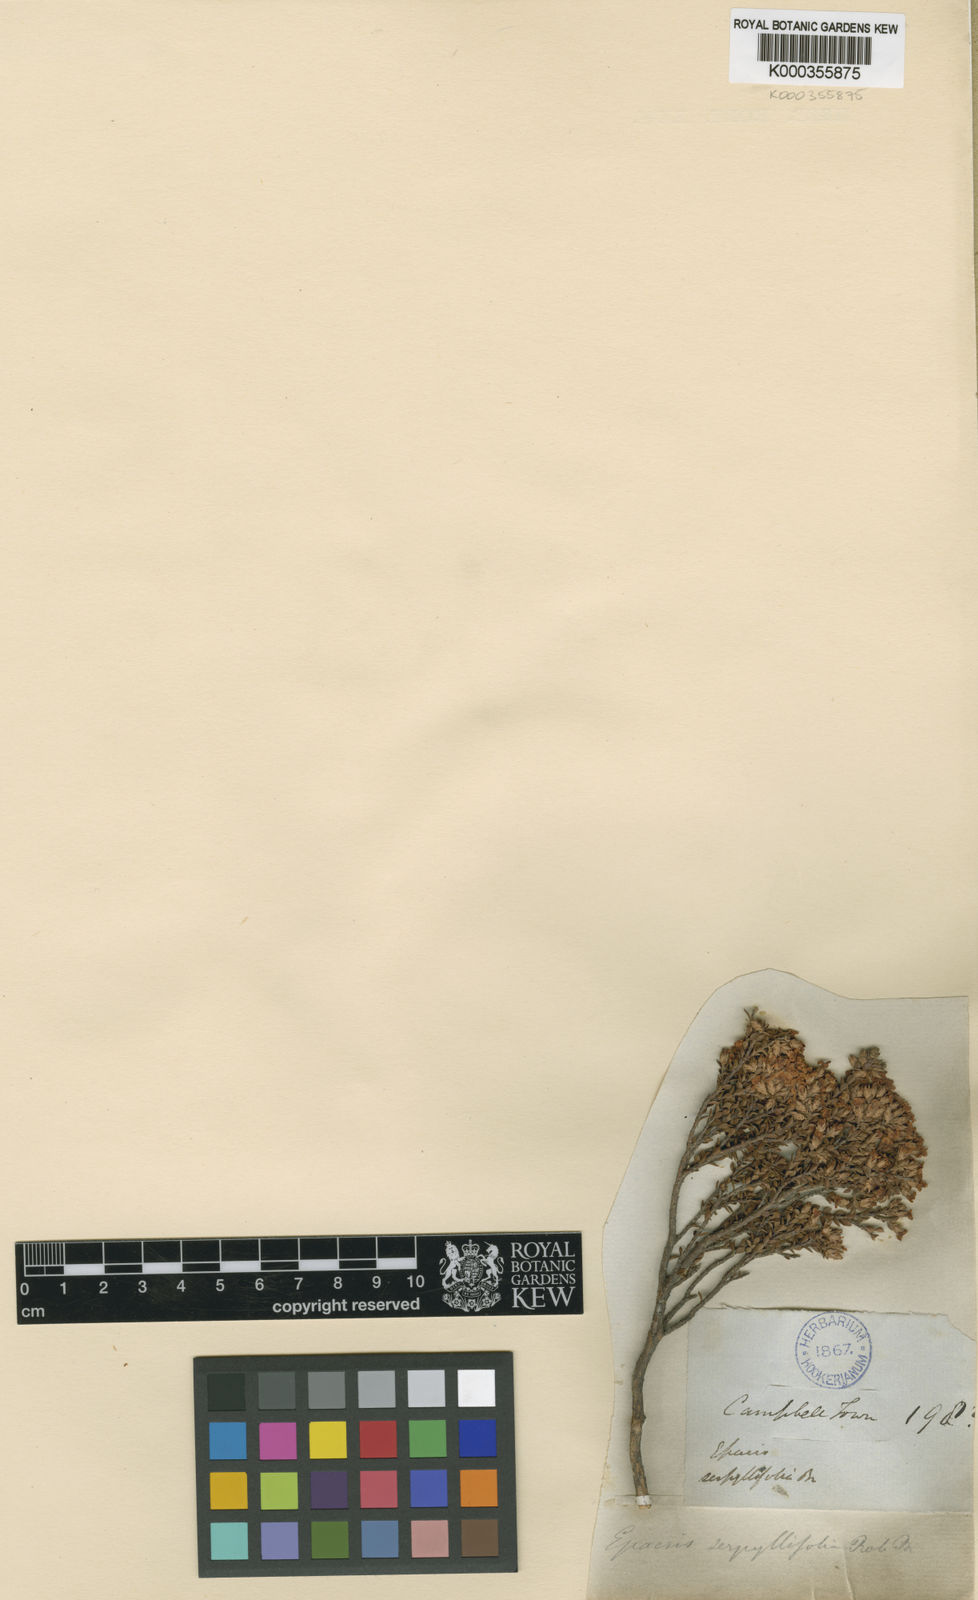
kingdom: Plantae
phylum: Tracheophyta
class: Magnoliopsida
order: Ericales
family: Ericaceae
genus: Epacris
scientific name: Epacris serpyllifolia
